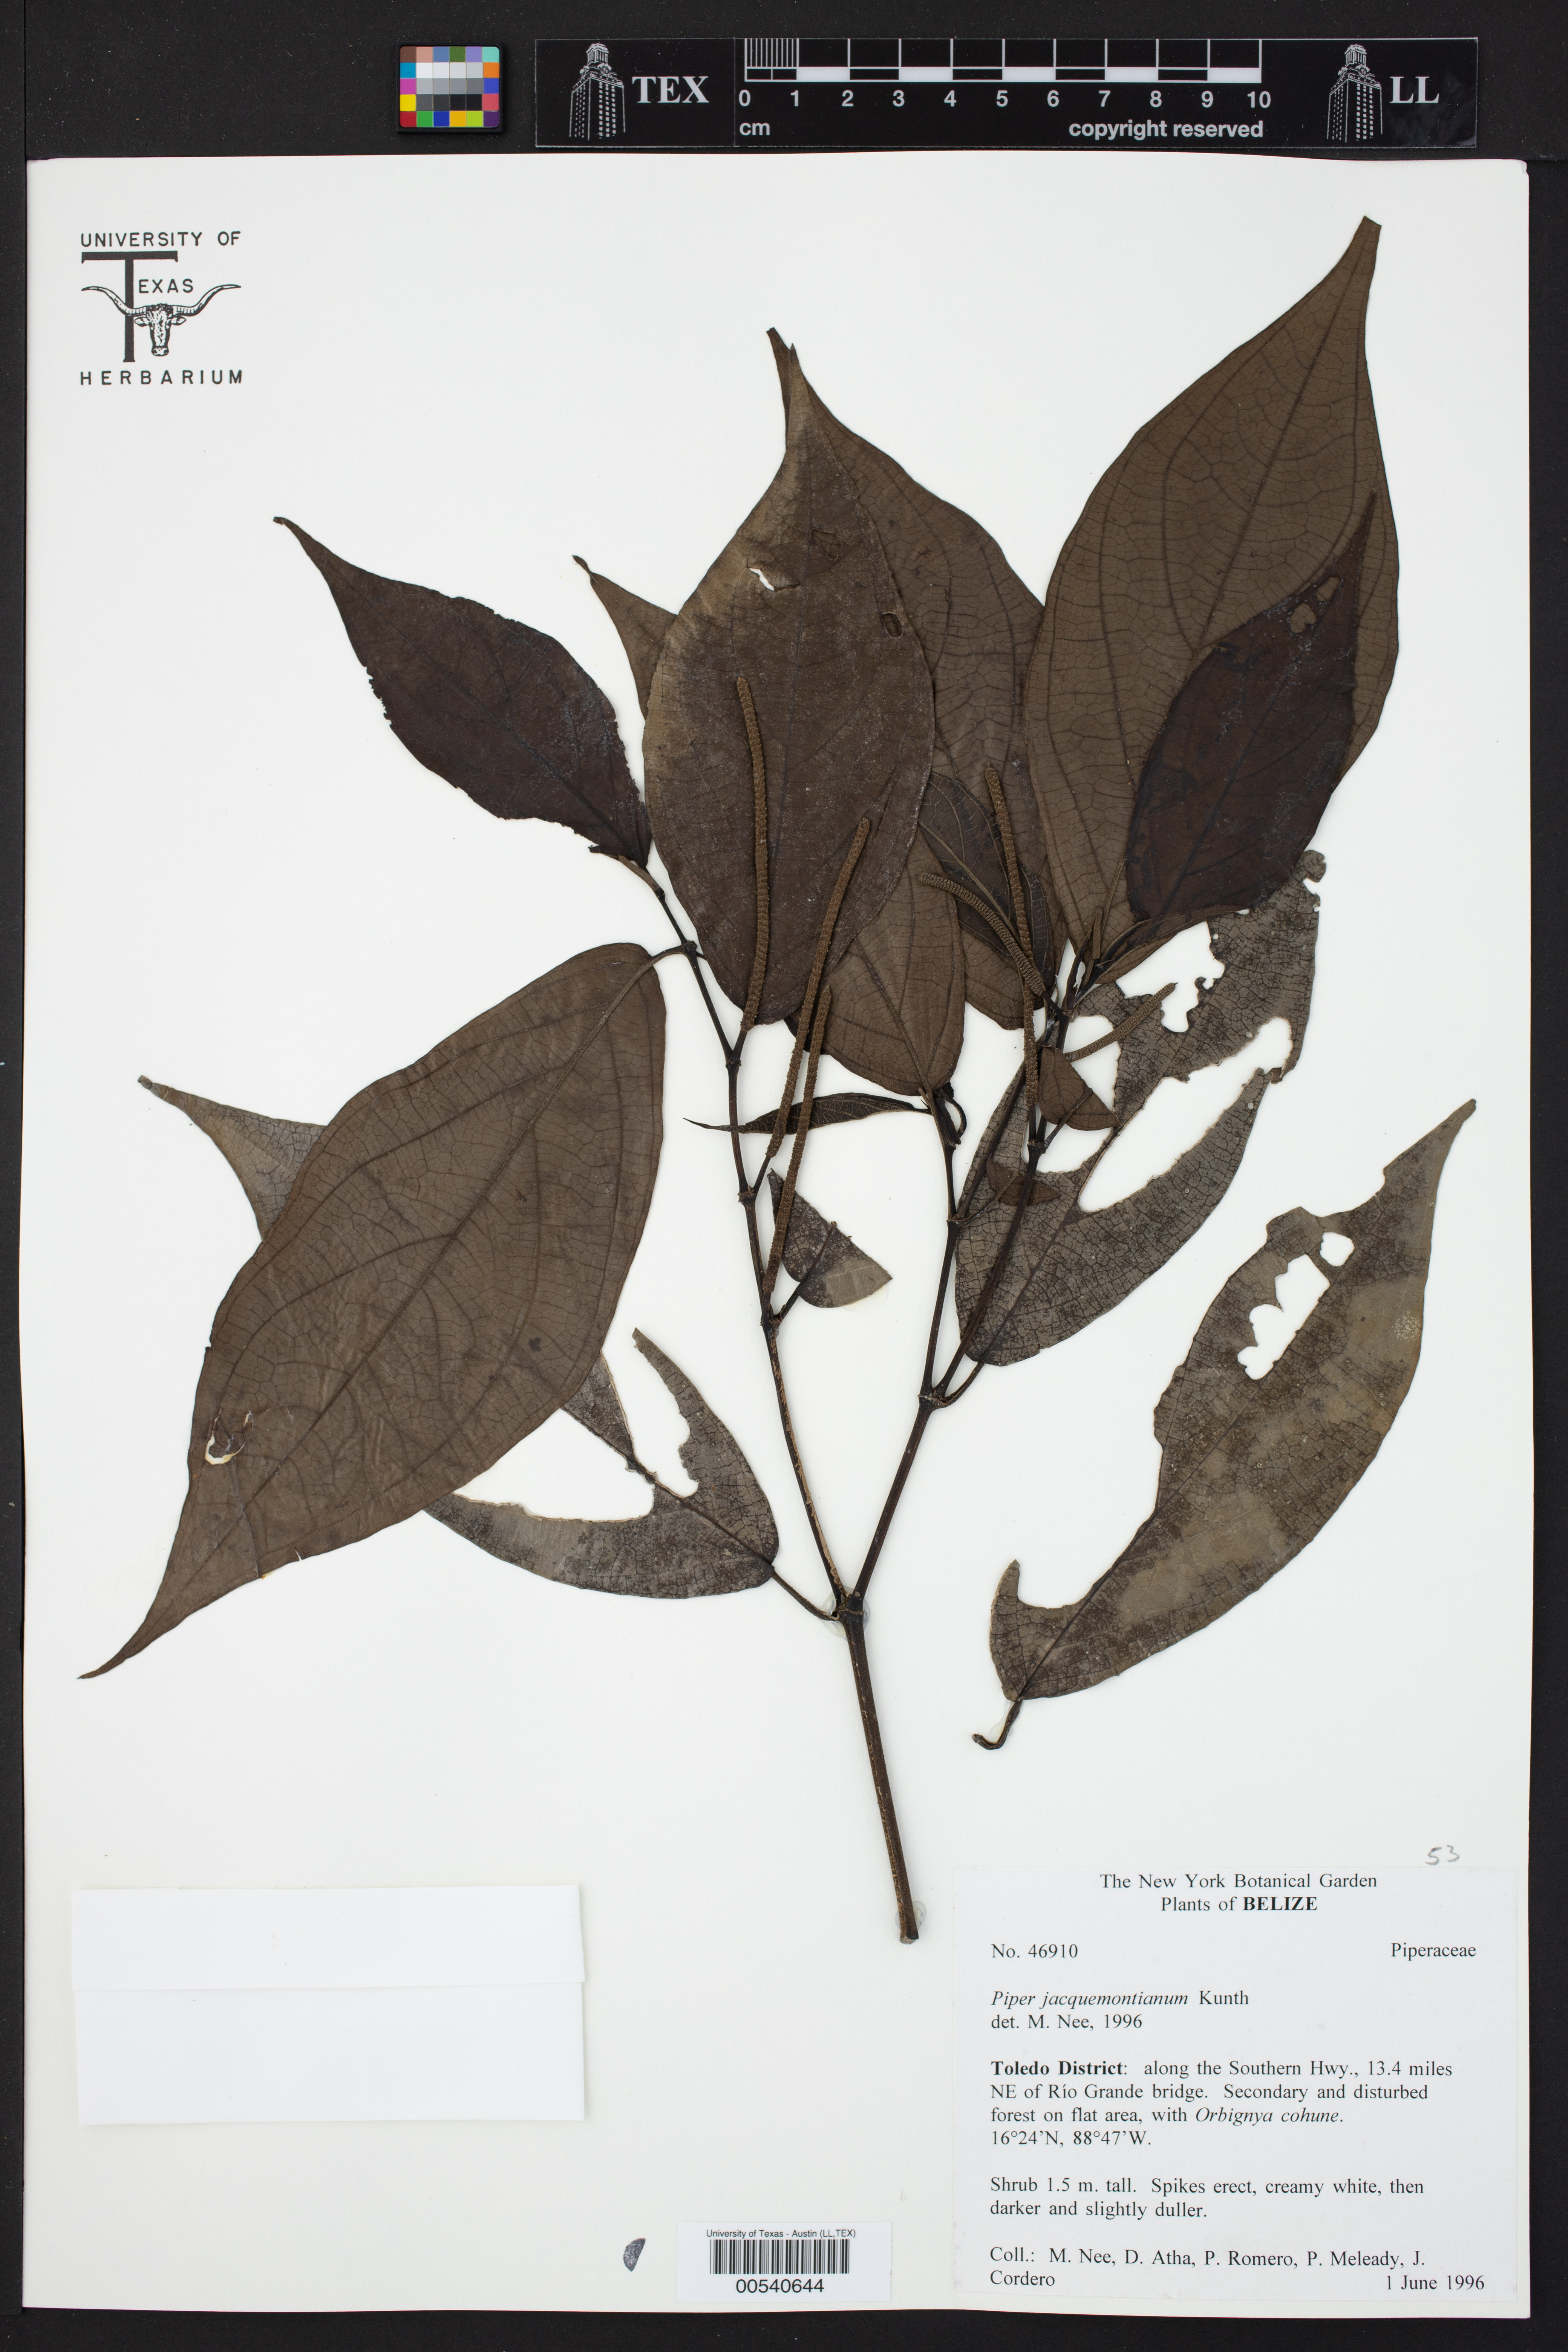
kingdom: Plantae
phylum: Tracheophyta
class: Magnoliopsida
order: Piperales
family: Piperaceae
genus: Piper
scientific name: Piper jacquemontianum
